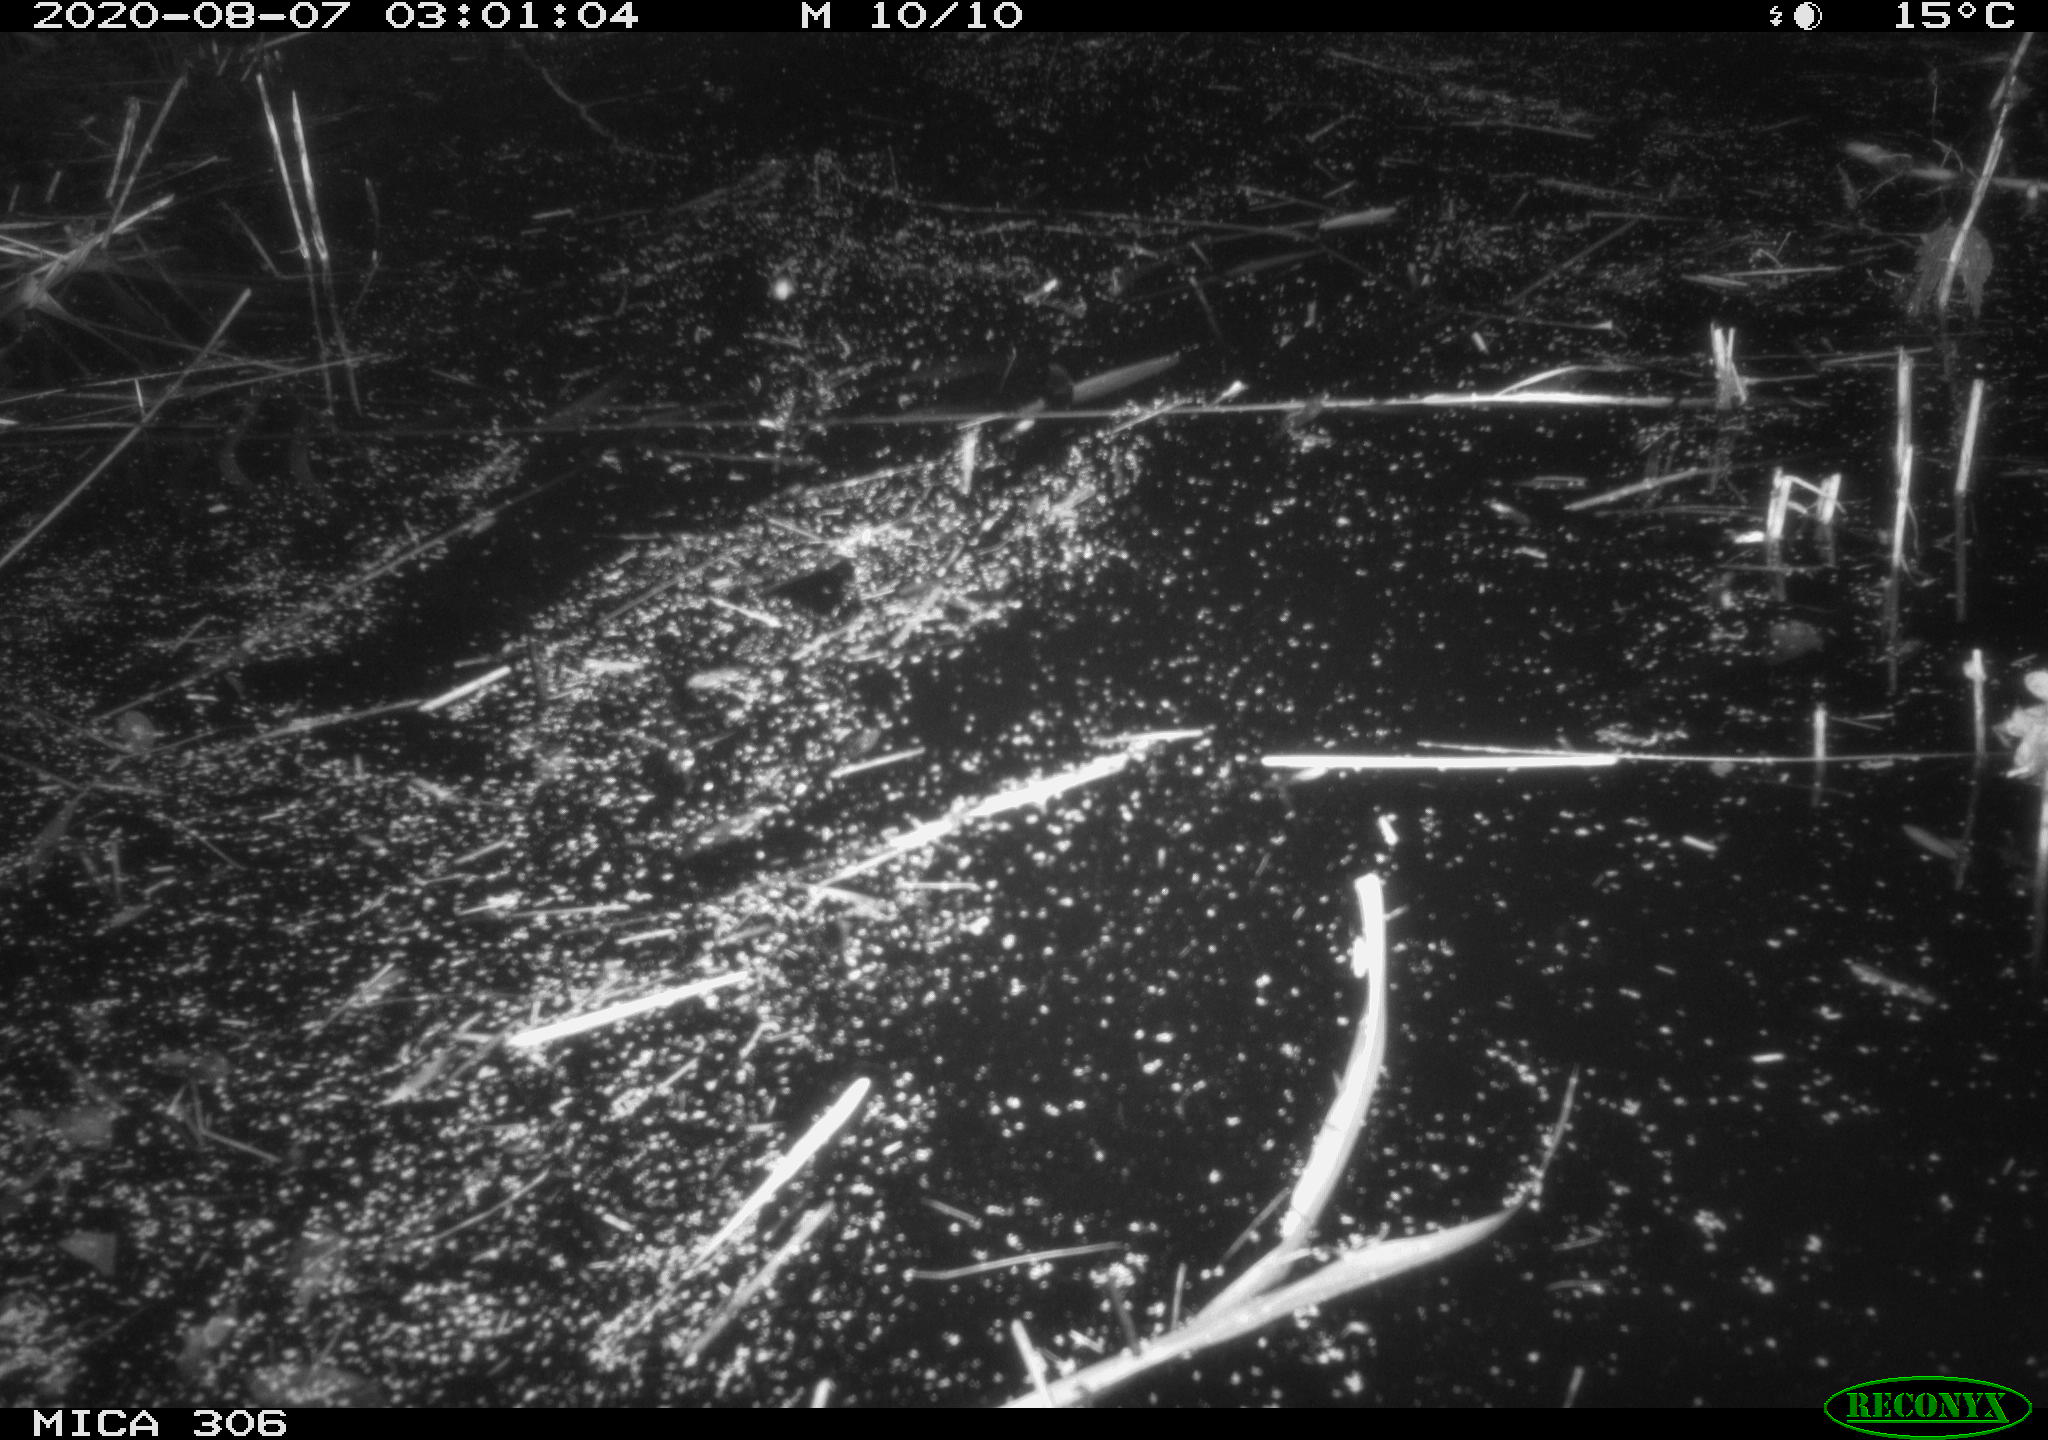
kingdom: Animalia
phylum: Chordata
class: Mammalia
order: Rodentia
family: Cricetidae
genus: Ondatra
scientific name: Ondatra zibethicus
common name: Muskrat
